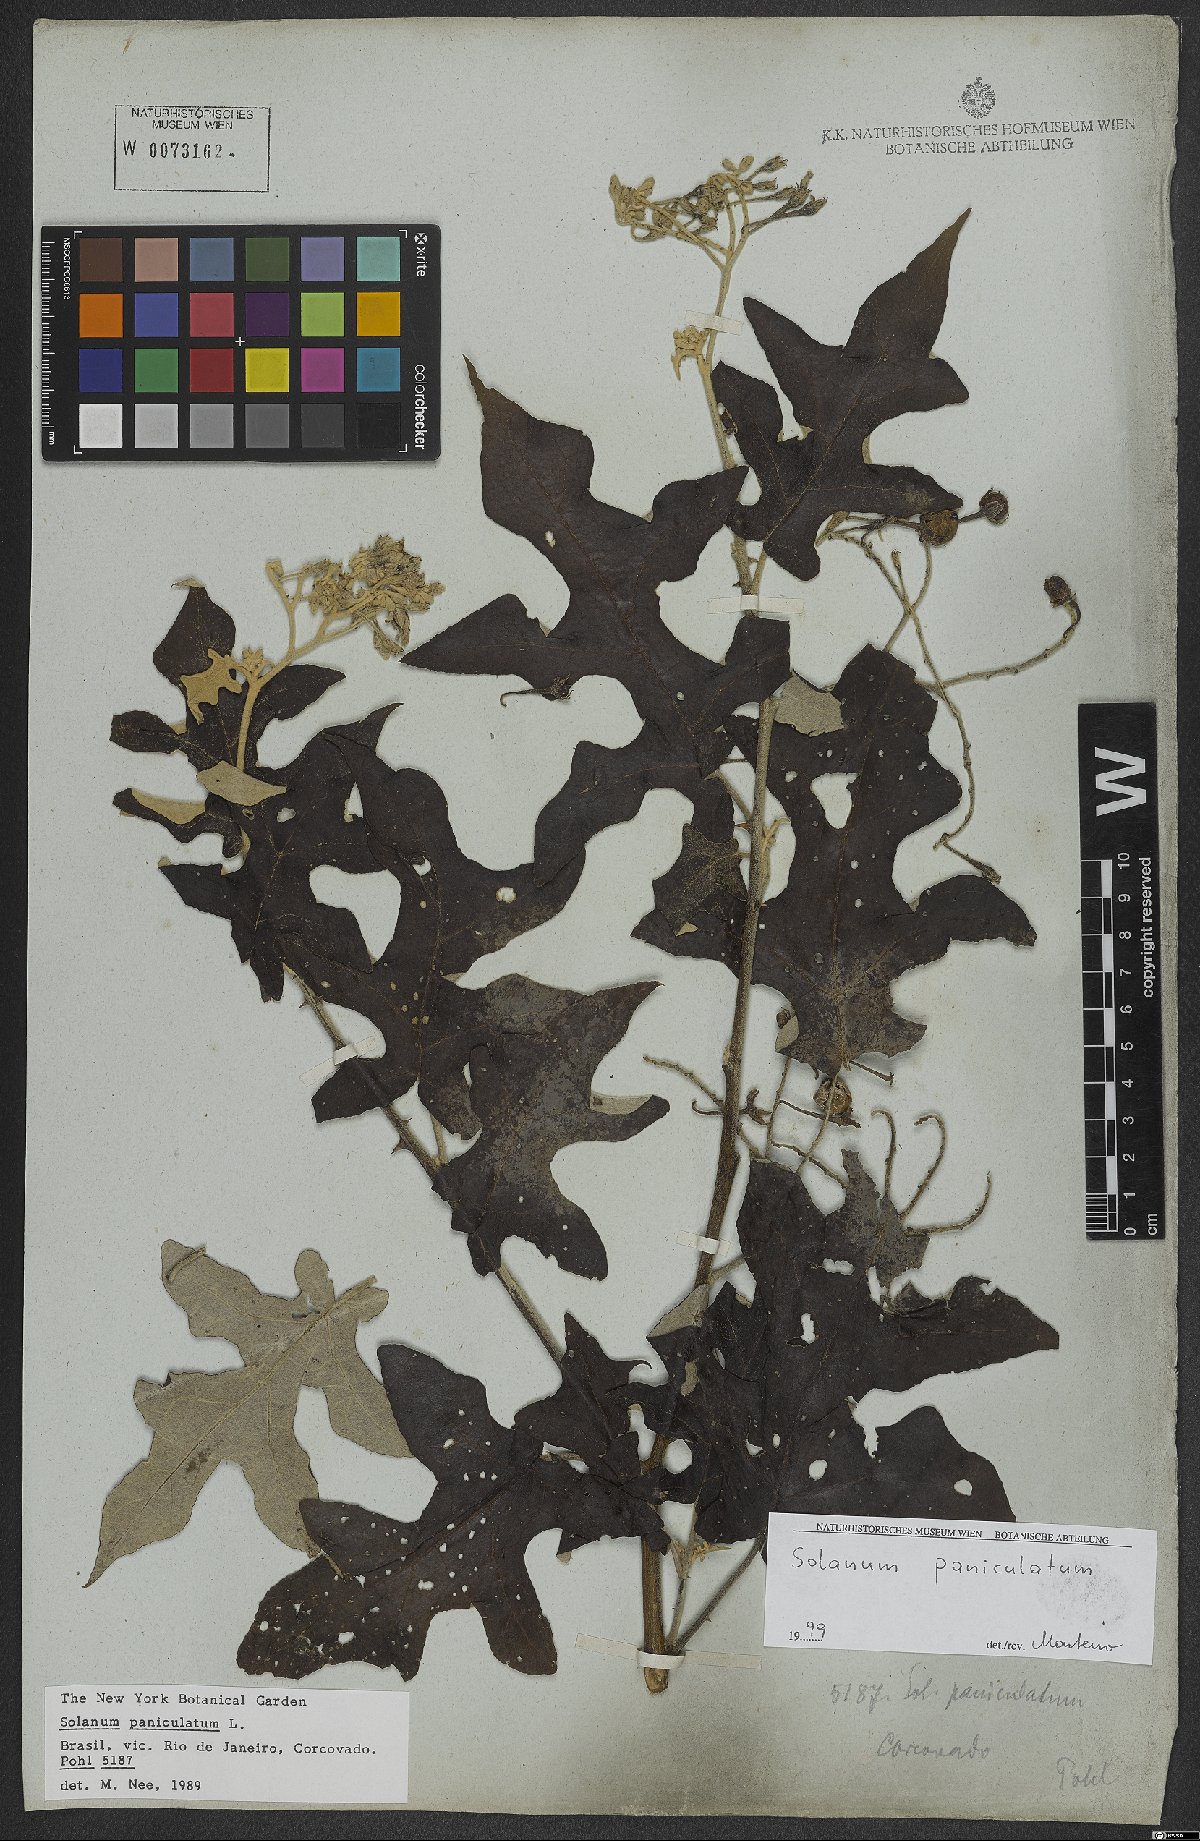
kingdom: Plantae
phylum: Tracheophyta
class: Magnoliopsida
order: Solanales
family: Solanaceae
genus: Solanum
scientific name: Solanum paniculatum
